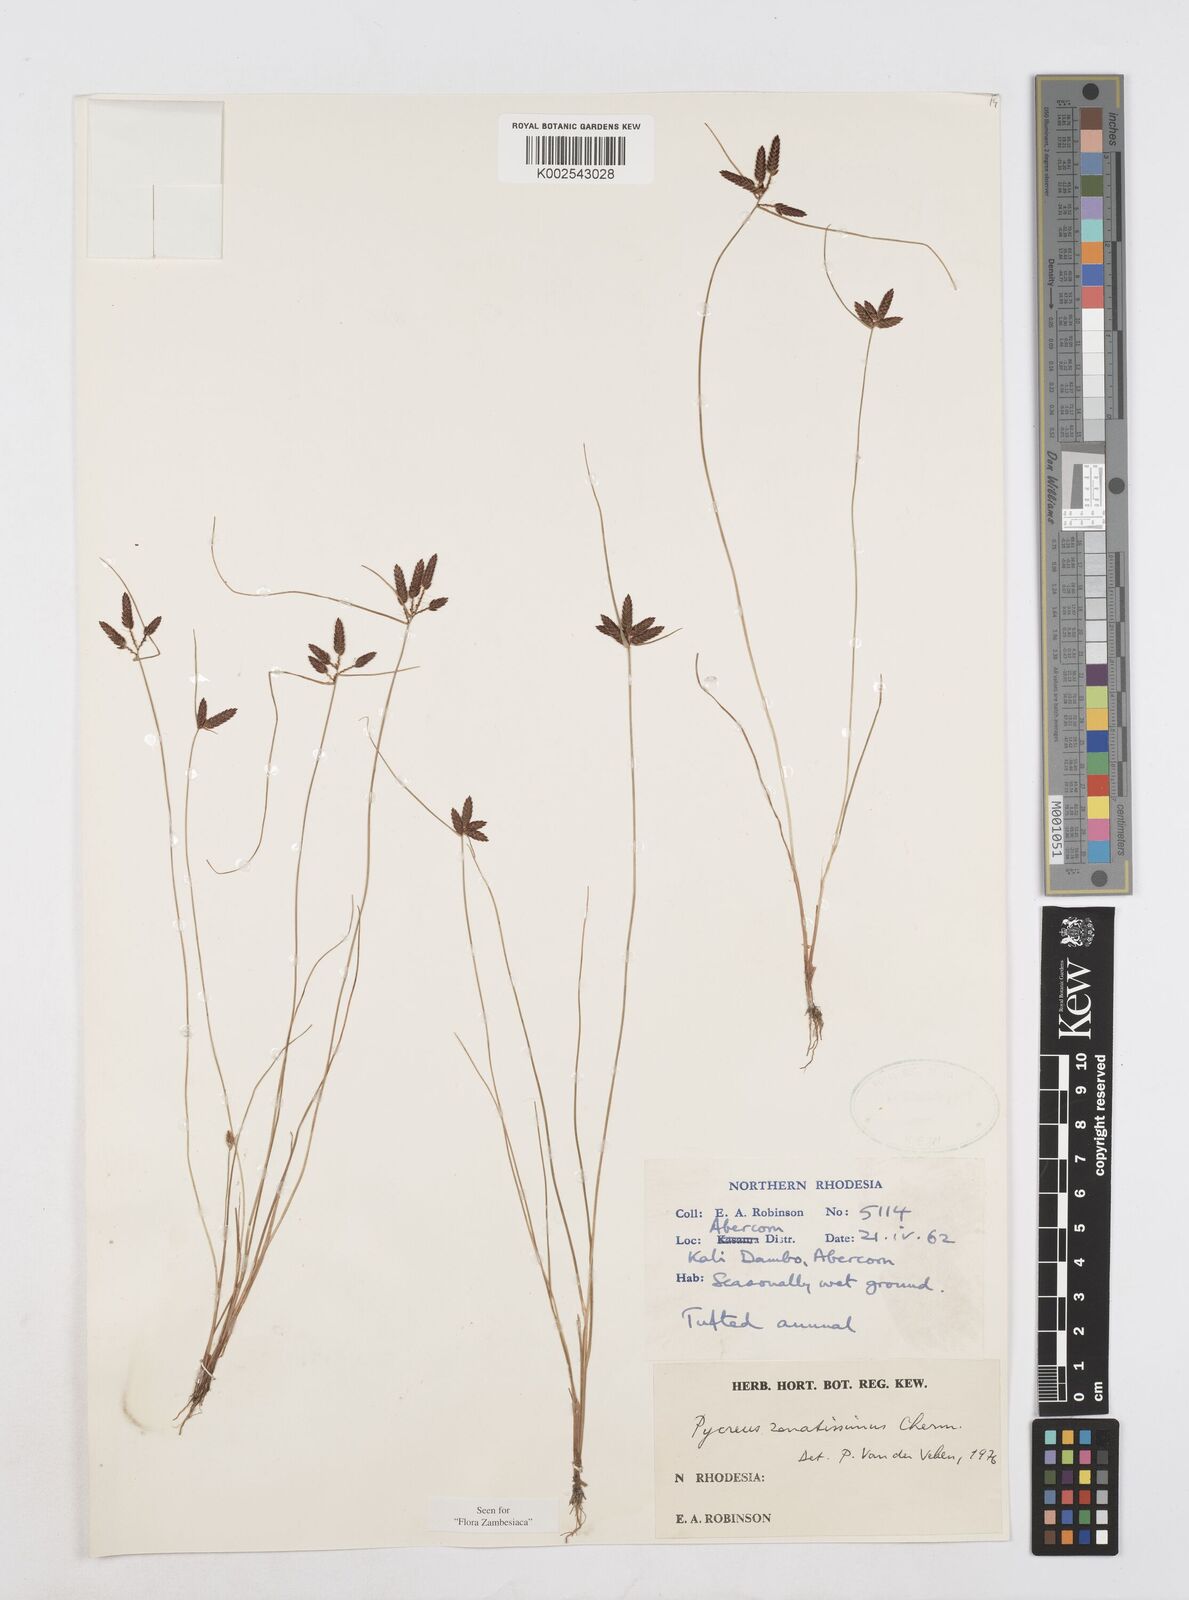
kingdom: Plantae
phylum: Tracheophyta
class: Liliopsida
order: Poales
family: Cyperaceae
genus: Cyperus
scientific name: Cyperus zonatissimus
